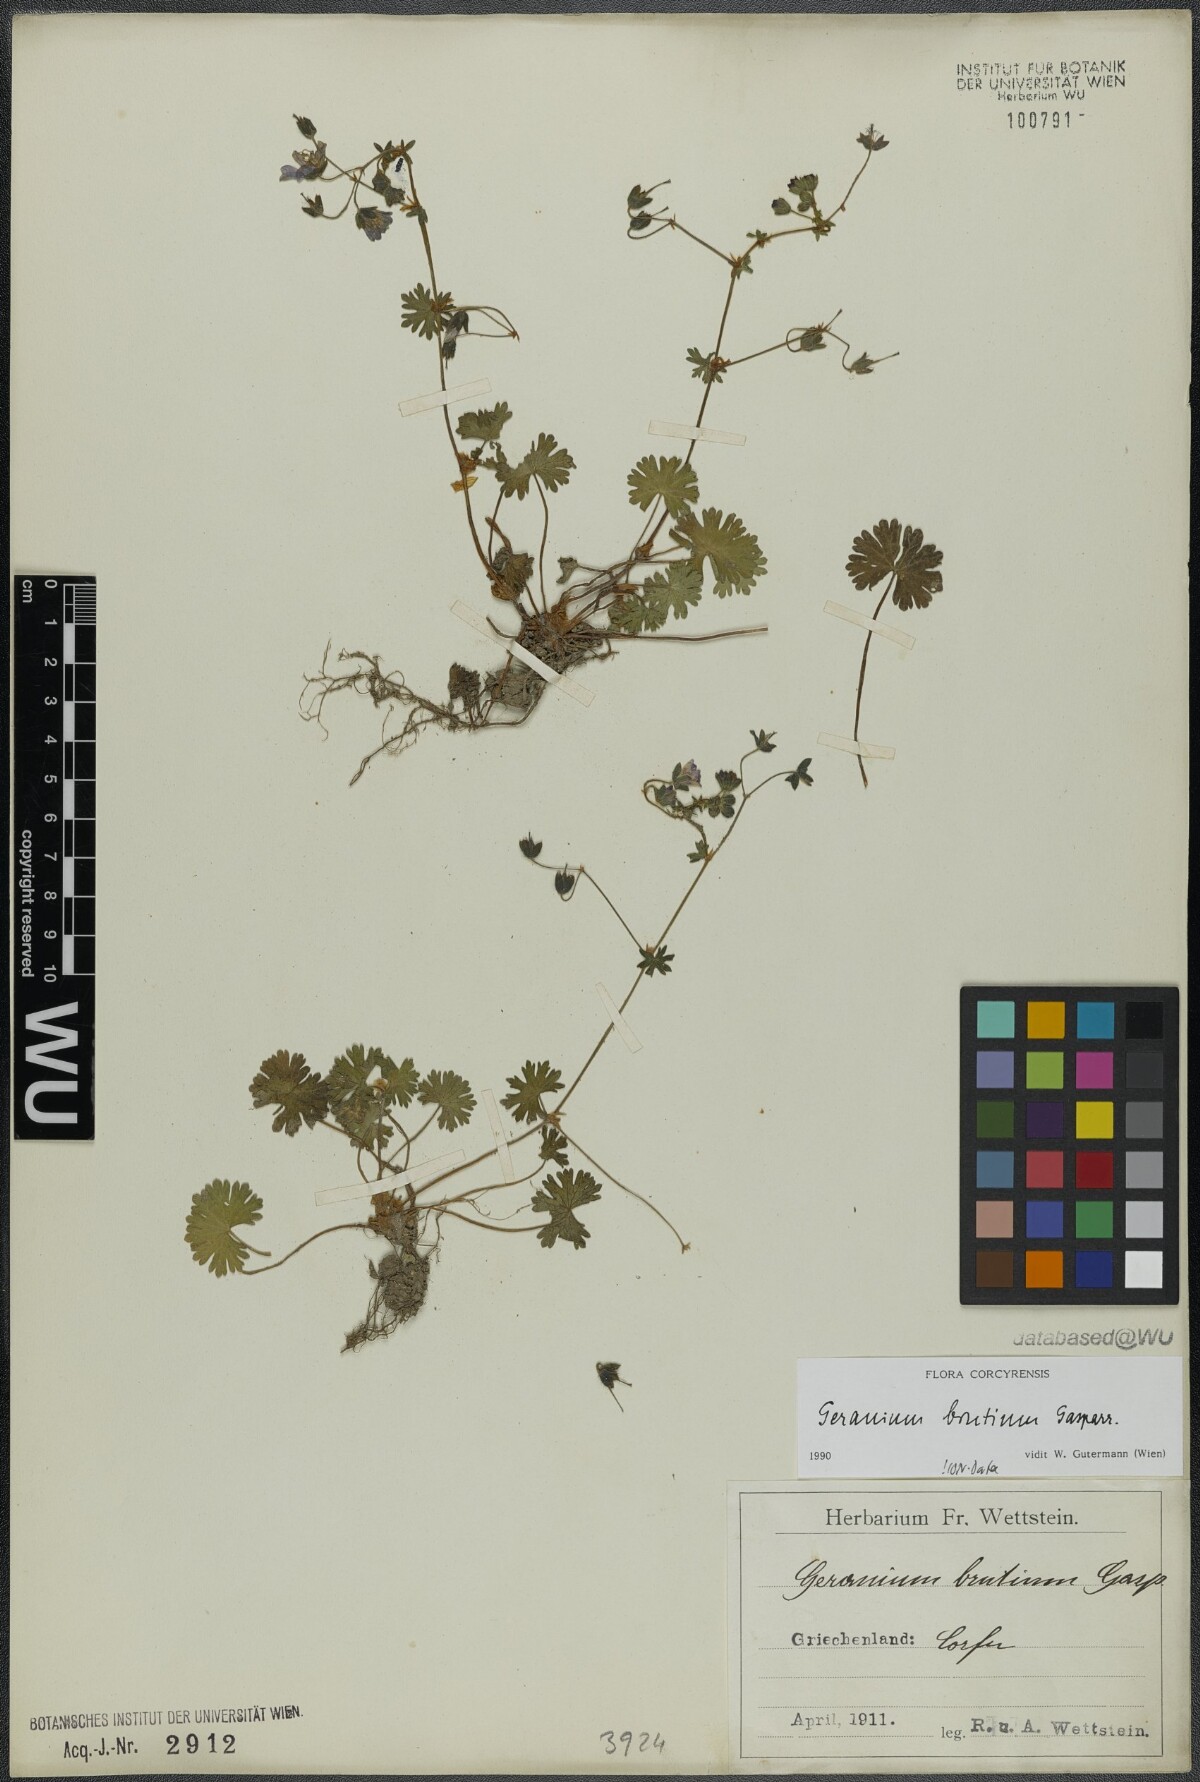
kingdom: Plantae
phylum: Tracheophyta
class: Magnoliopsida
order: Geraniales
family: Geraniaceae
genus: Geranium
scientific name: Geranium molle
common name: Dove's-foot crane's-bill
